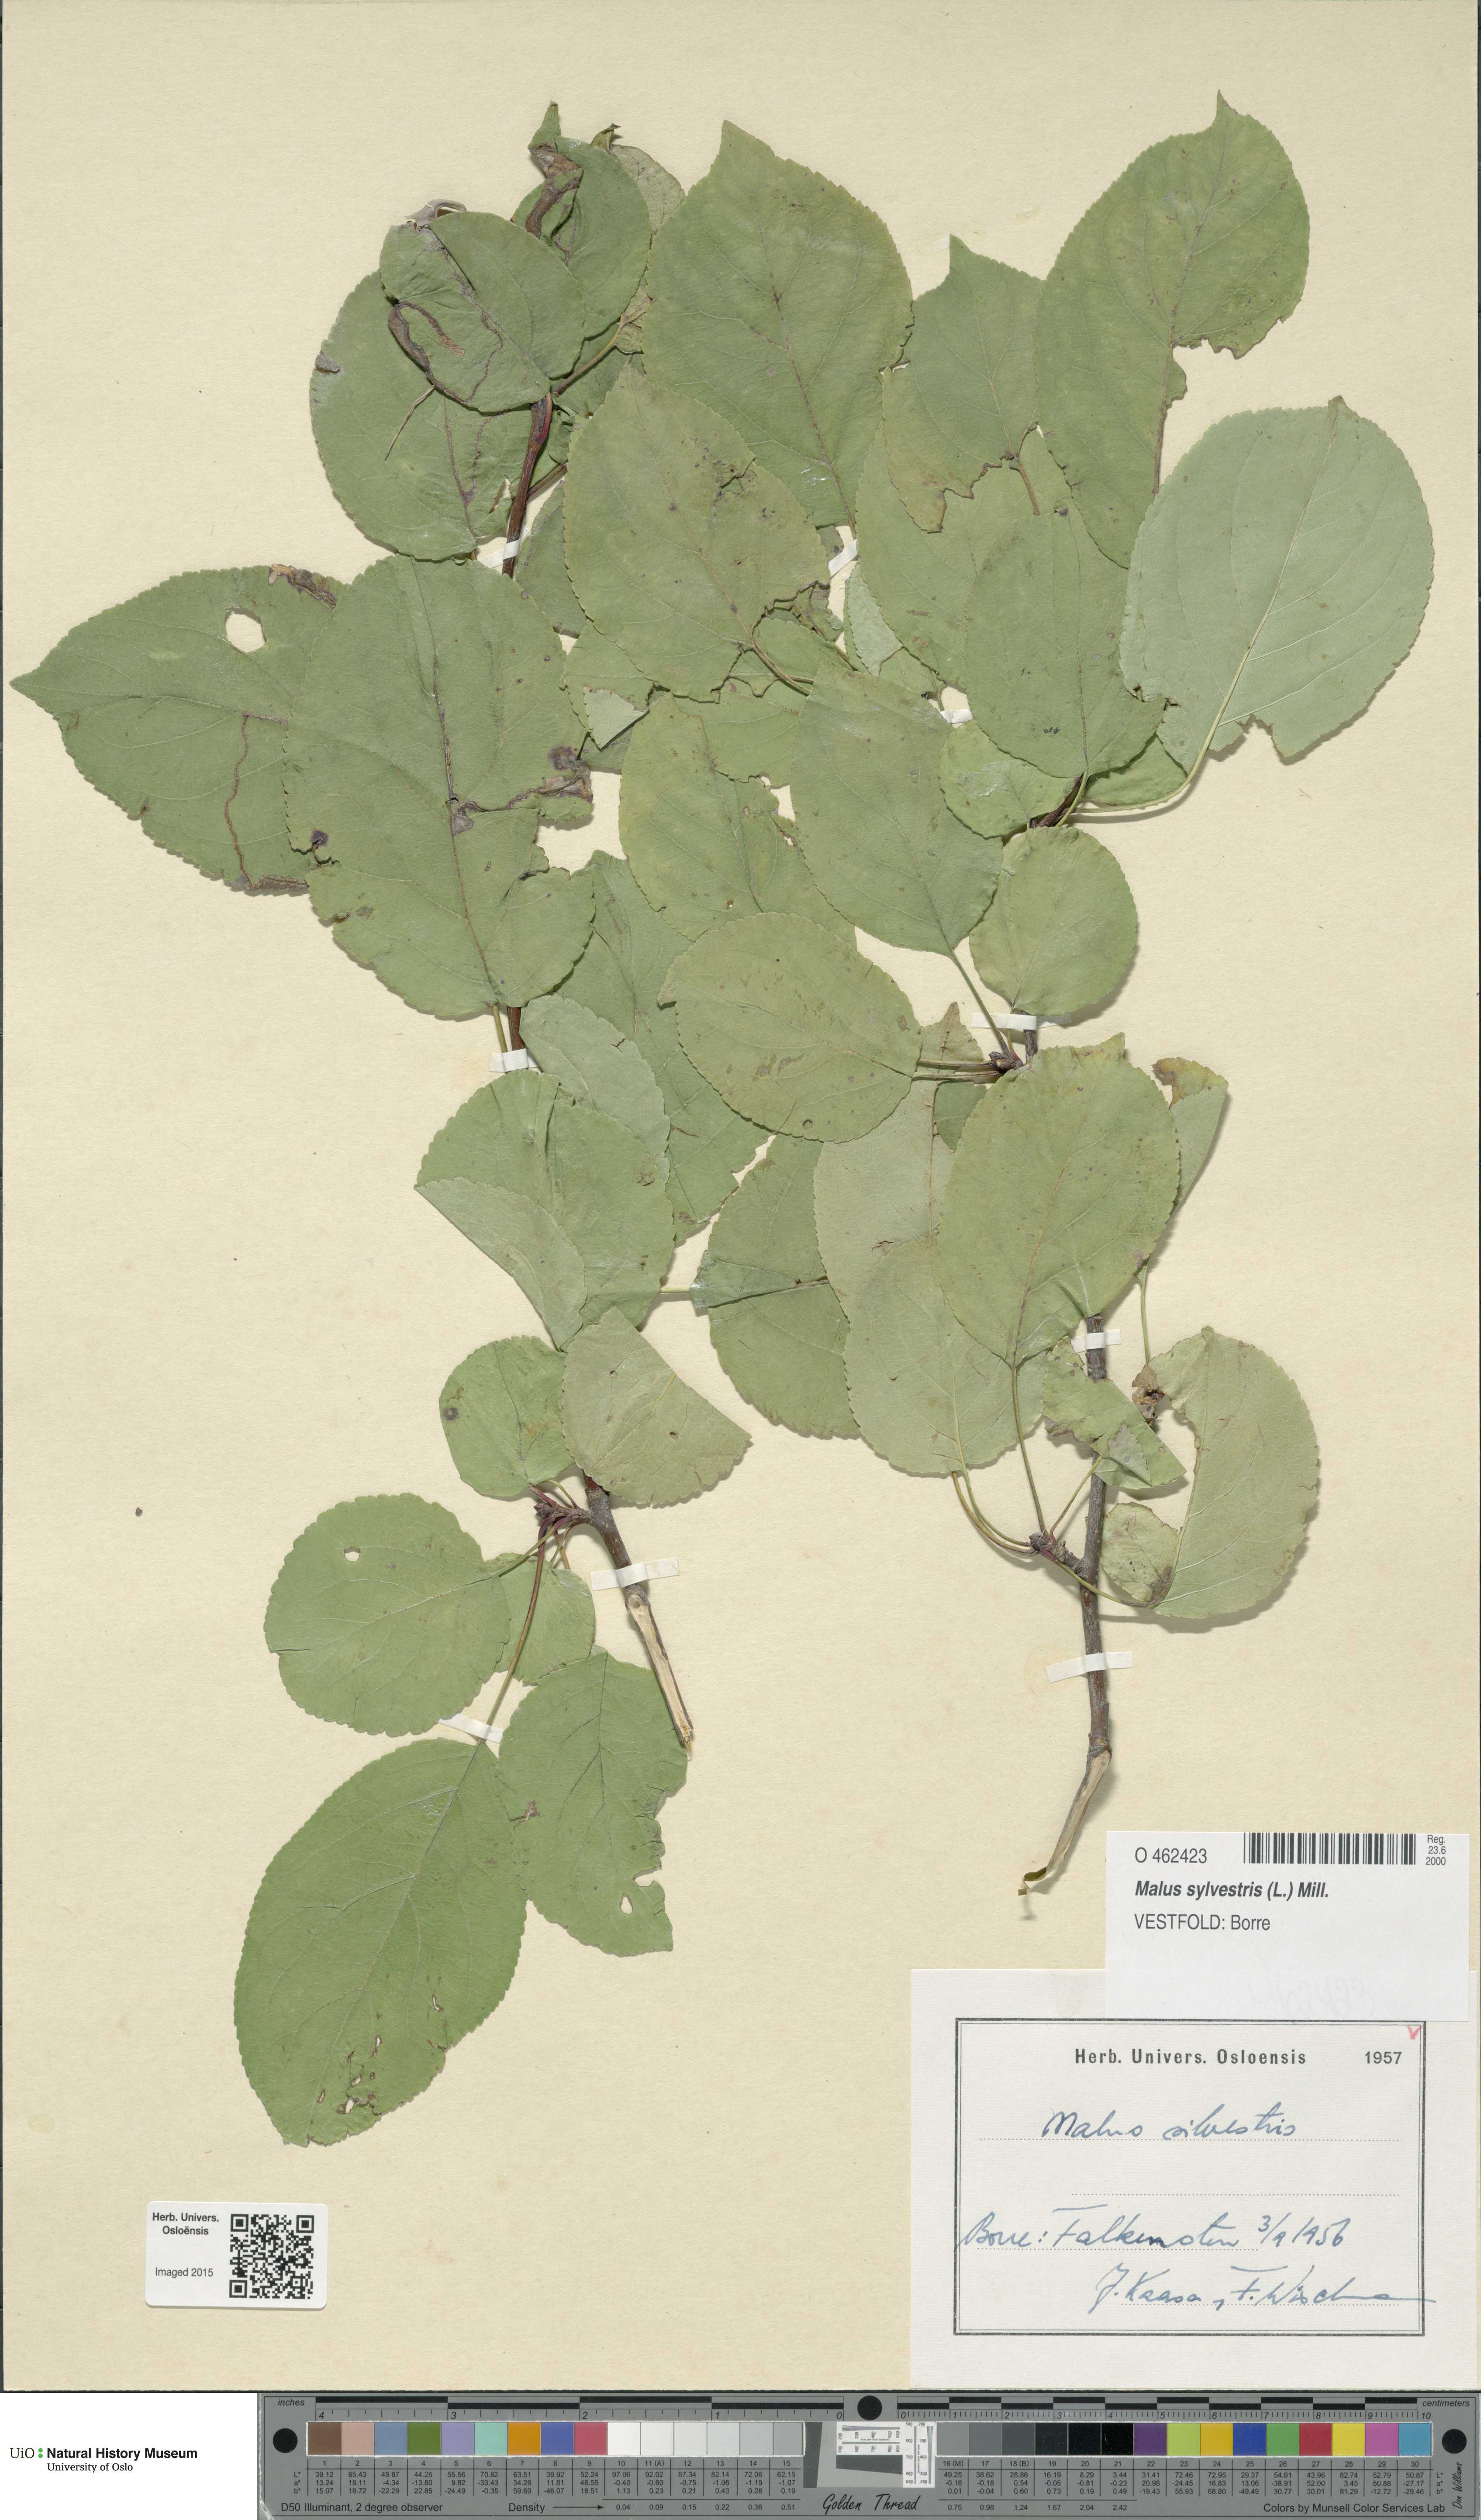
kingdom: Plantae
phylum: Tracheophyta
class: Magnoliopsida
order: Rosales
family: Rosaceae
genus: Malus
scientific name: Malus sylvestris
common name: Crab apple
